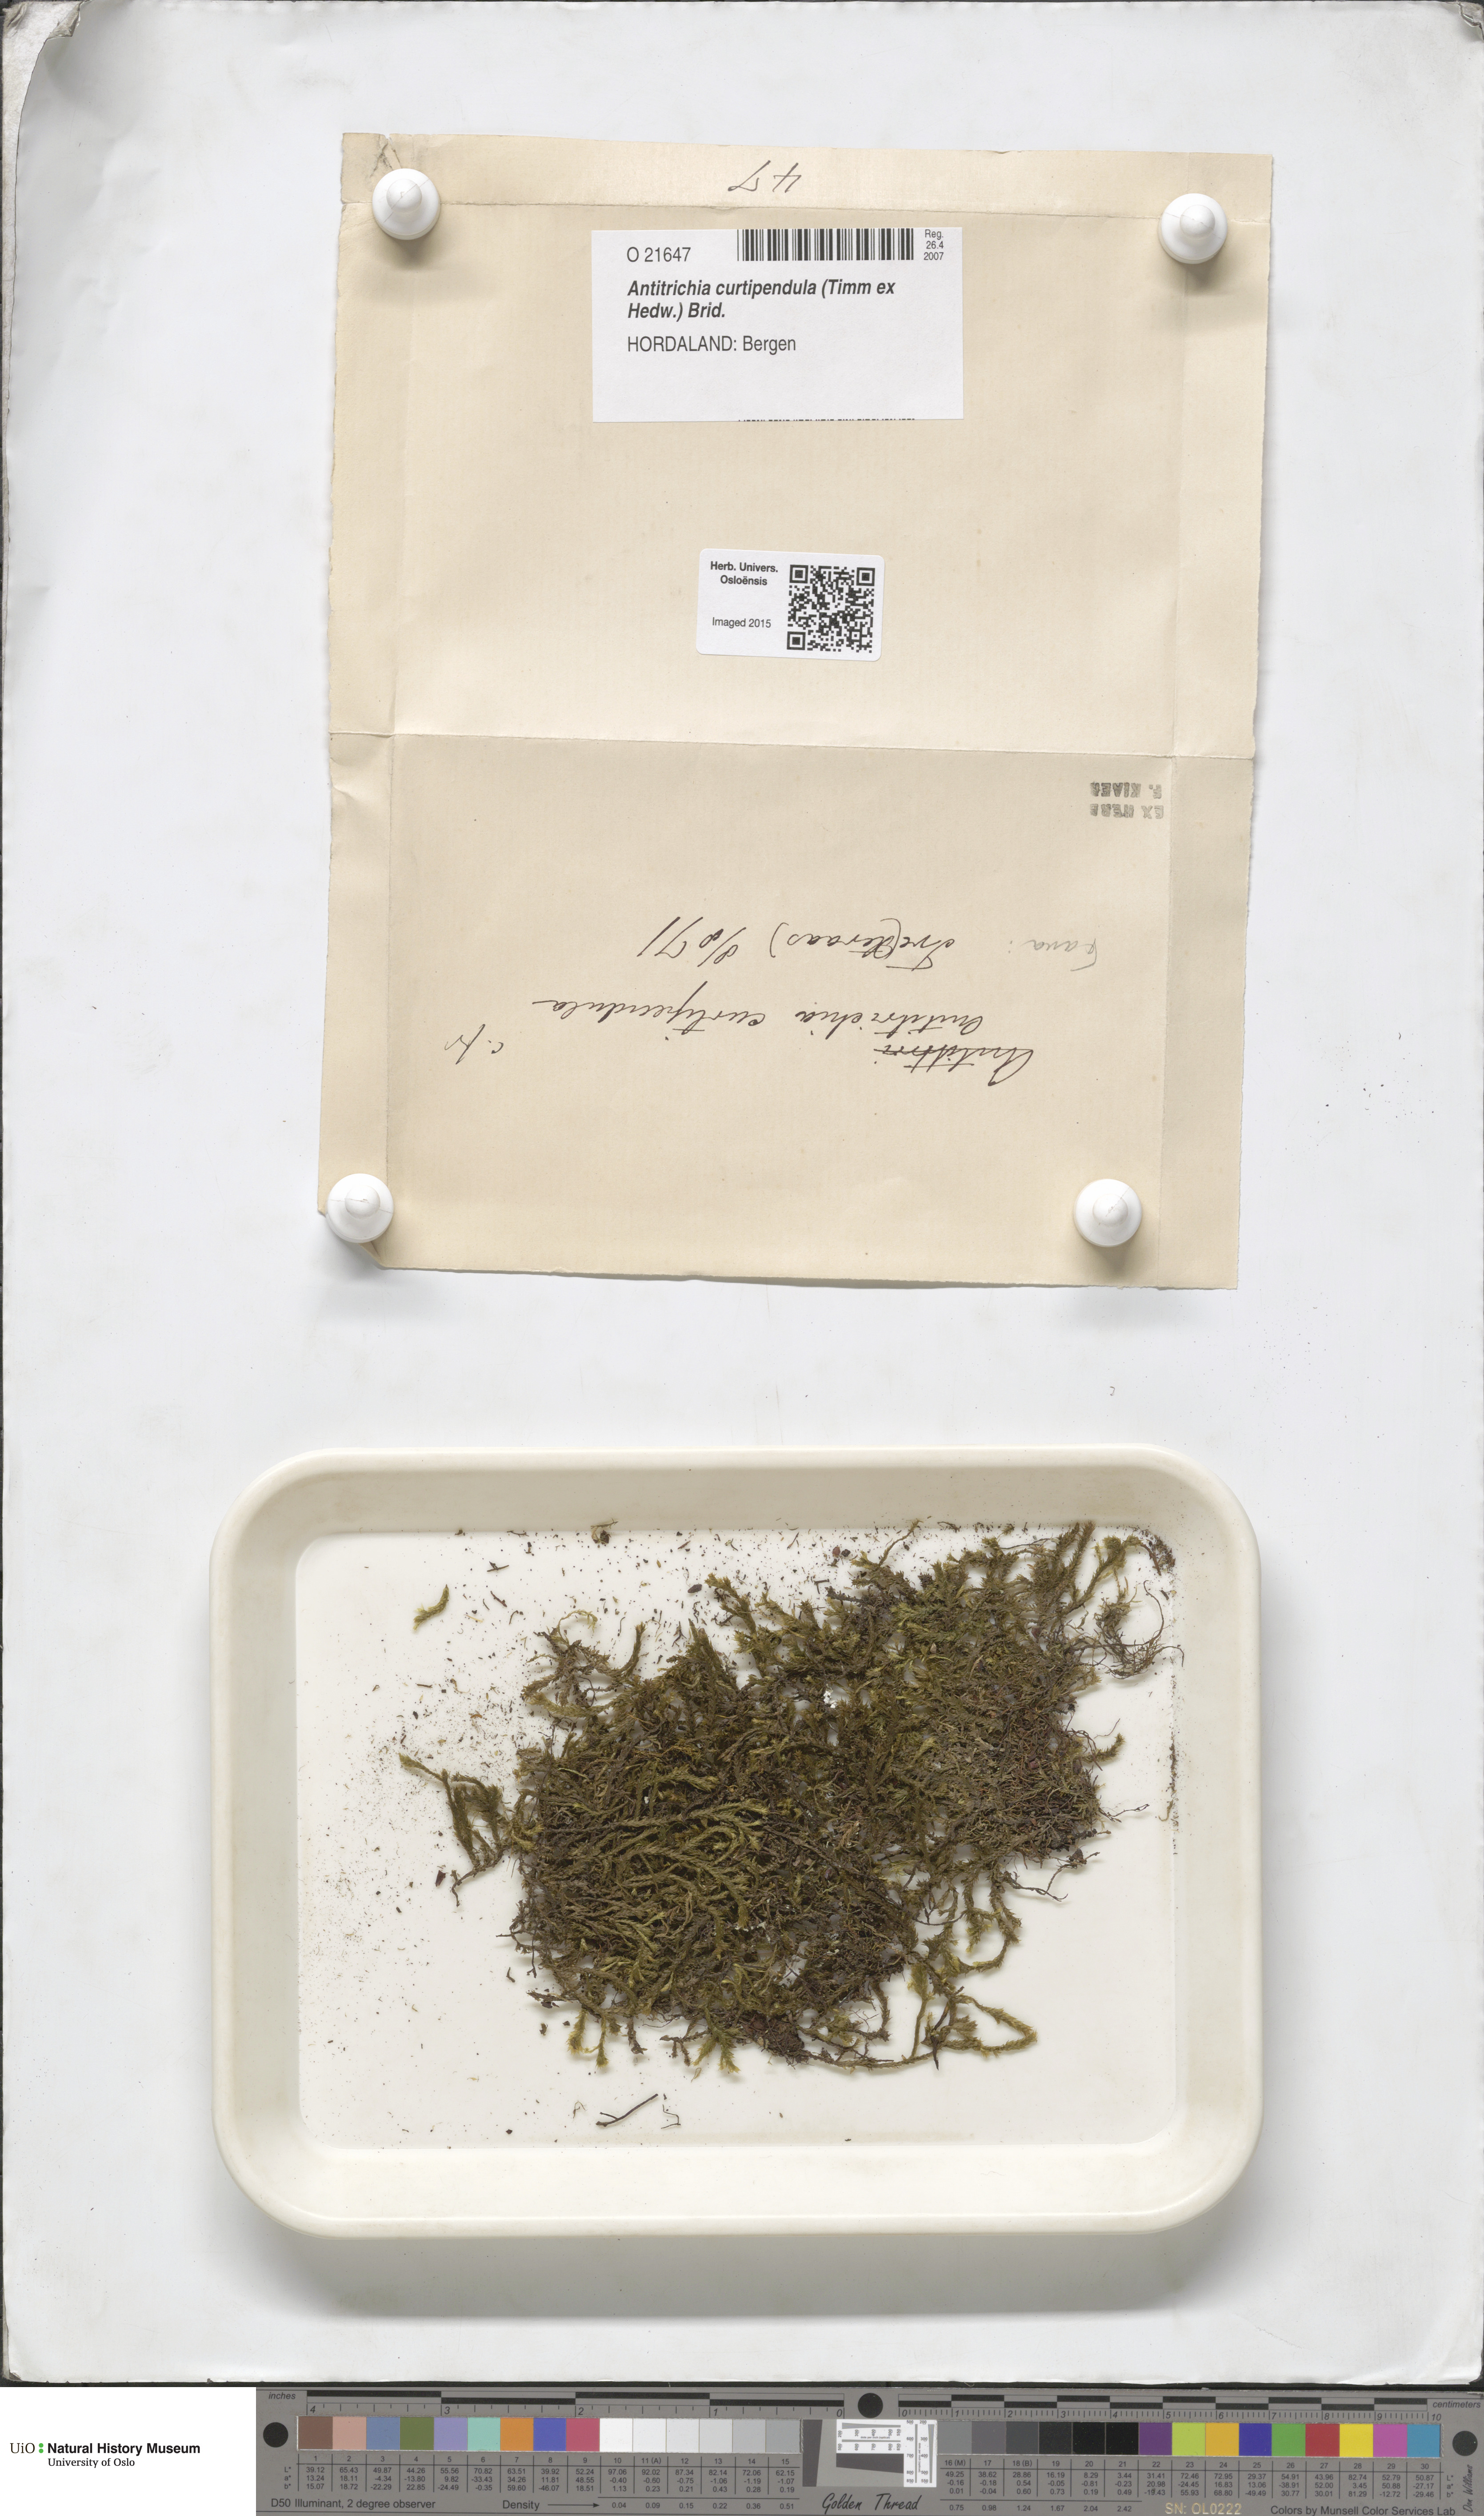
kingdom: Plantae
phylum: Bryophyta
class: Bryopsida
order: Hypnales
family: Antitrichiaceae
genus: Antitrichia
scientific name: Antitrichia curtipendula
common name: Pendulous wing-moss
